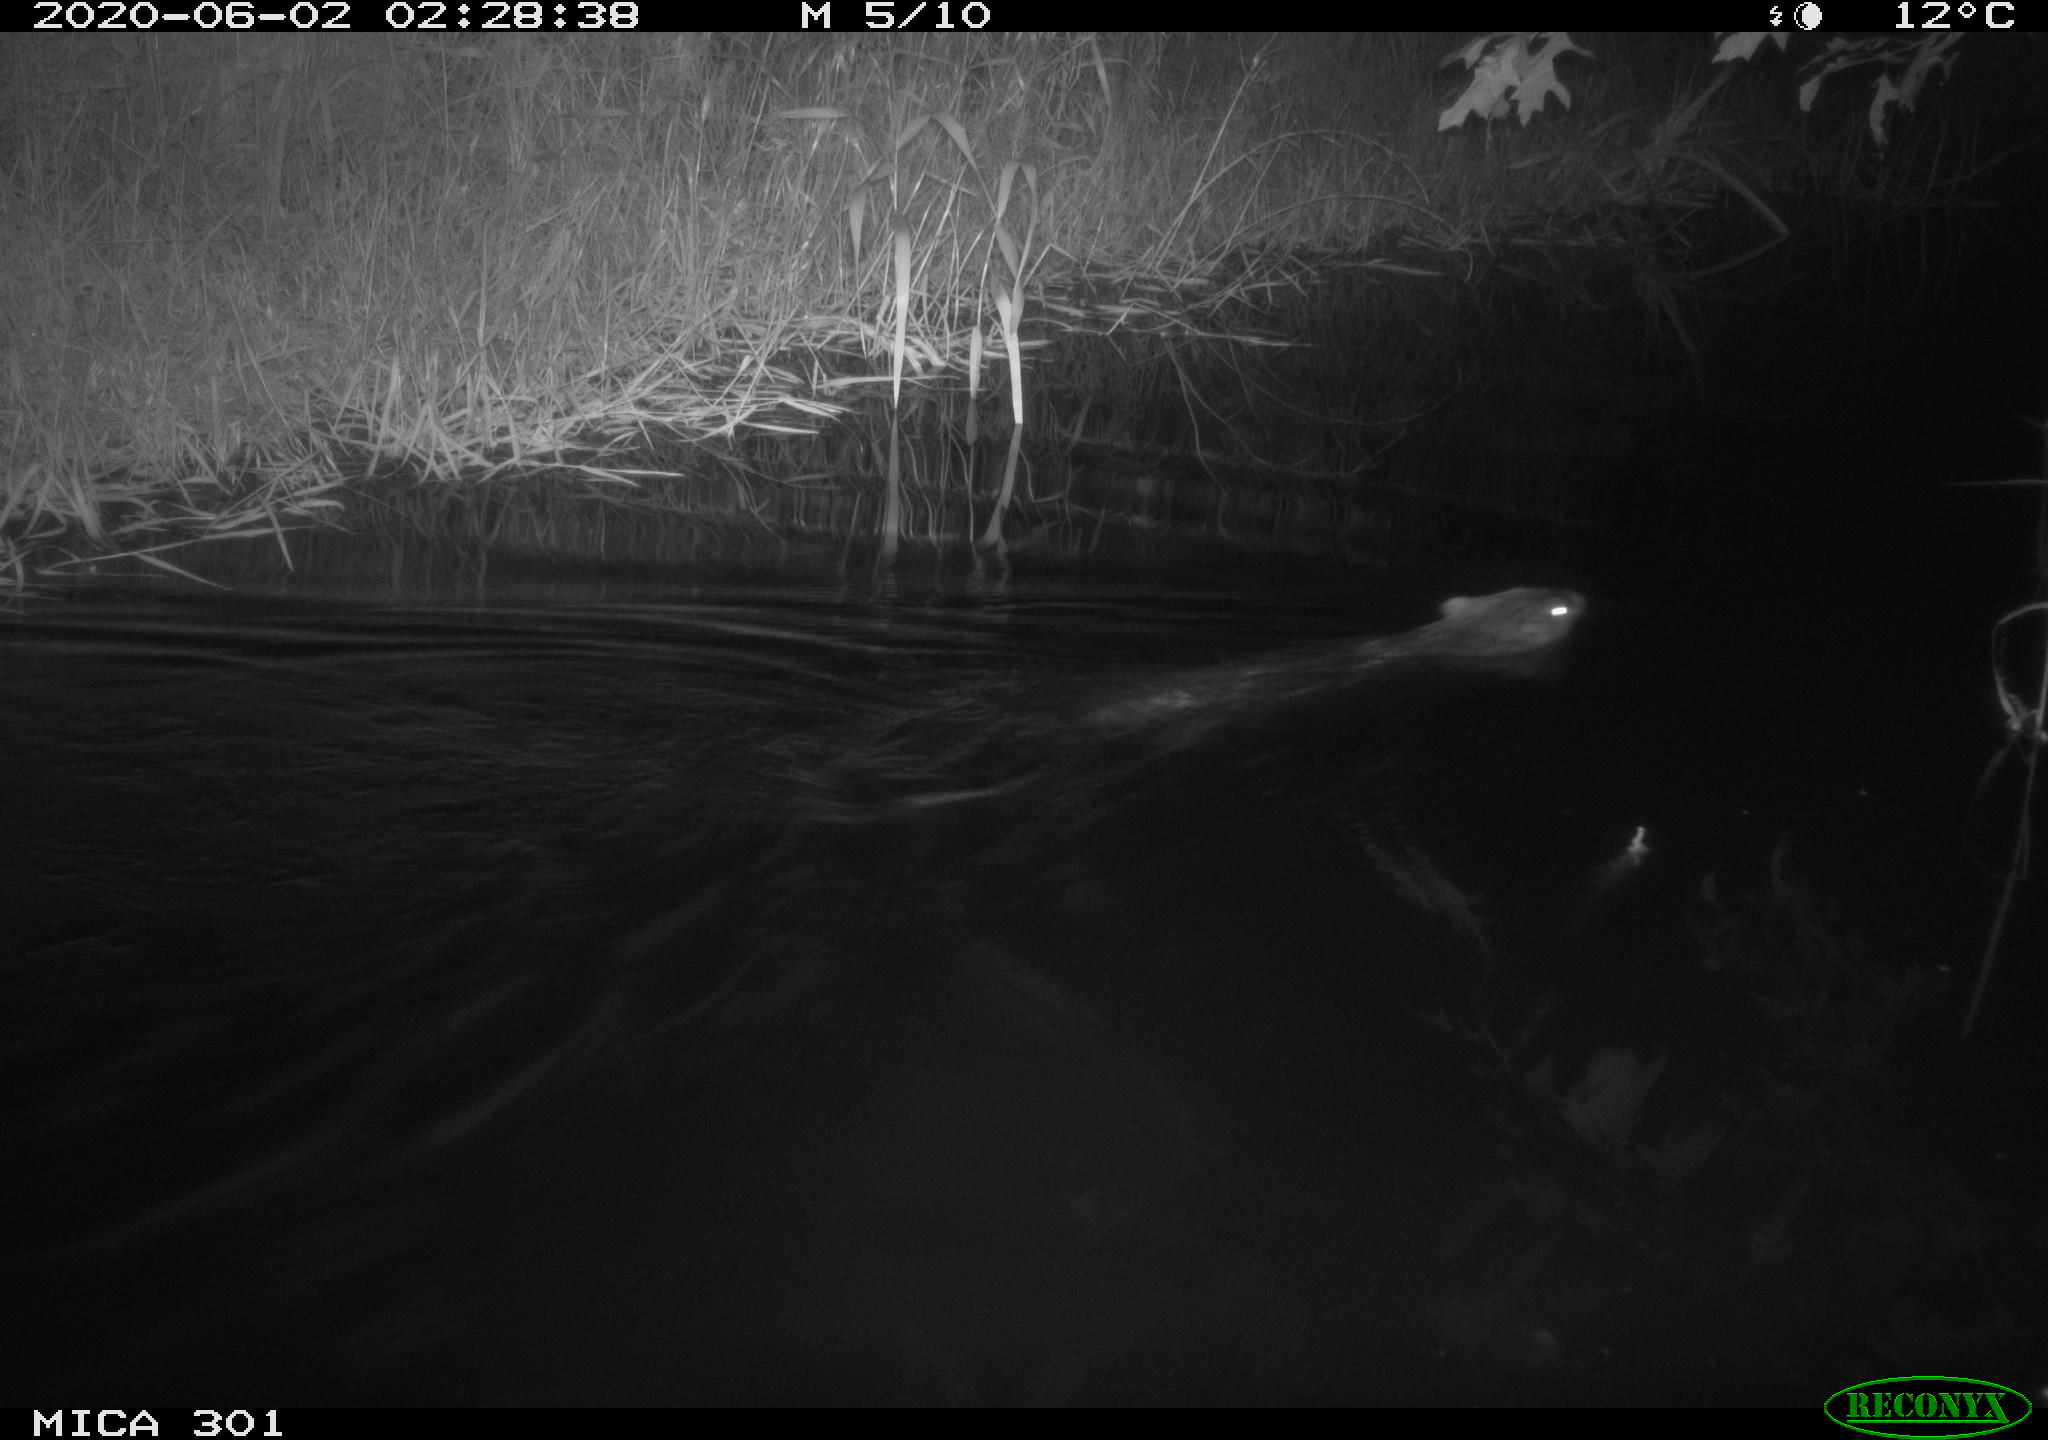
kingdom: Animalia
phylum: Chordata
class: Mammalia
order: Rodentia
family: Castoridae
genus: Castor
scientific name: Castor fiber
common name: Eurasian beaver
